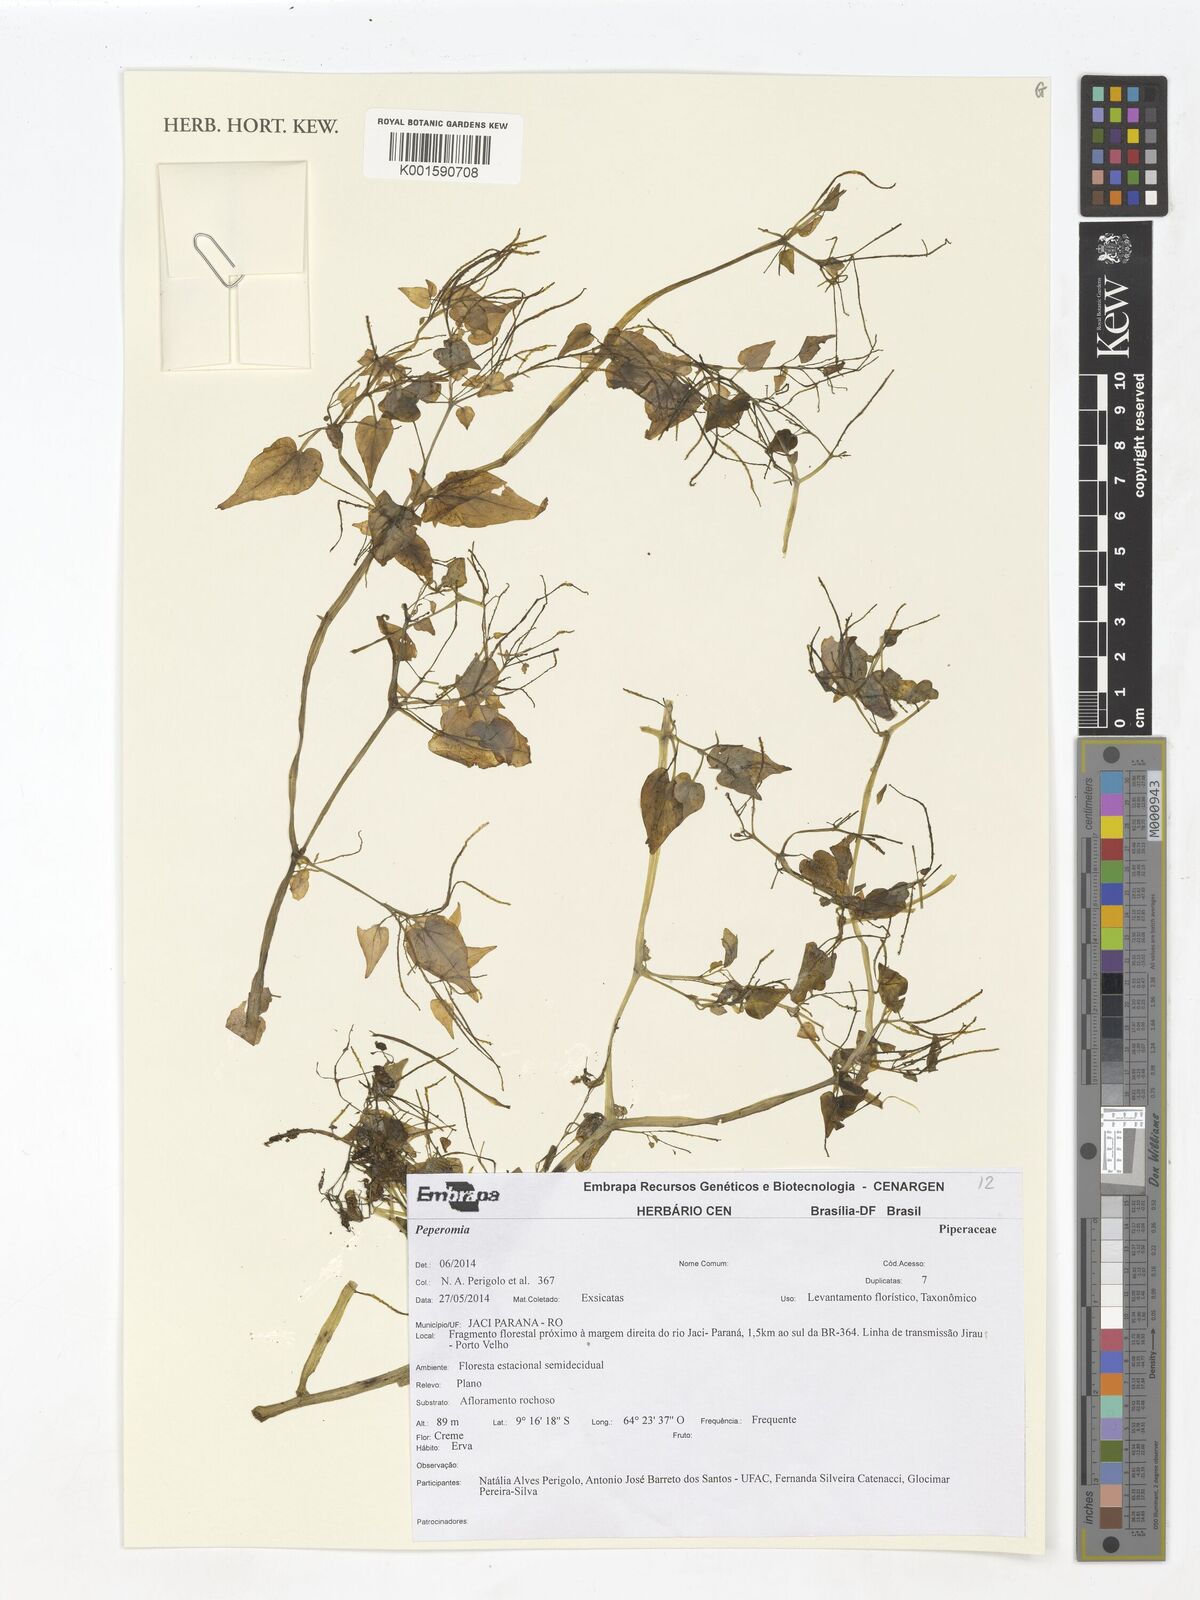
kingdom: Plantae
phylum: Tracheophyta
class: Magnoliopsida
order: Piperales
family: Piperaceae
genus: Peperomia
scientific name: Peperomia
